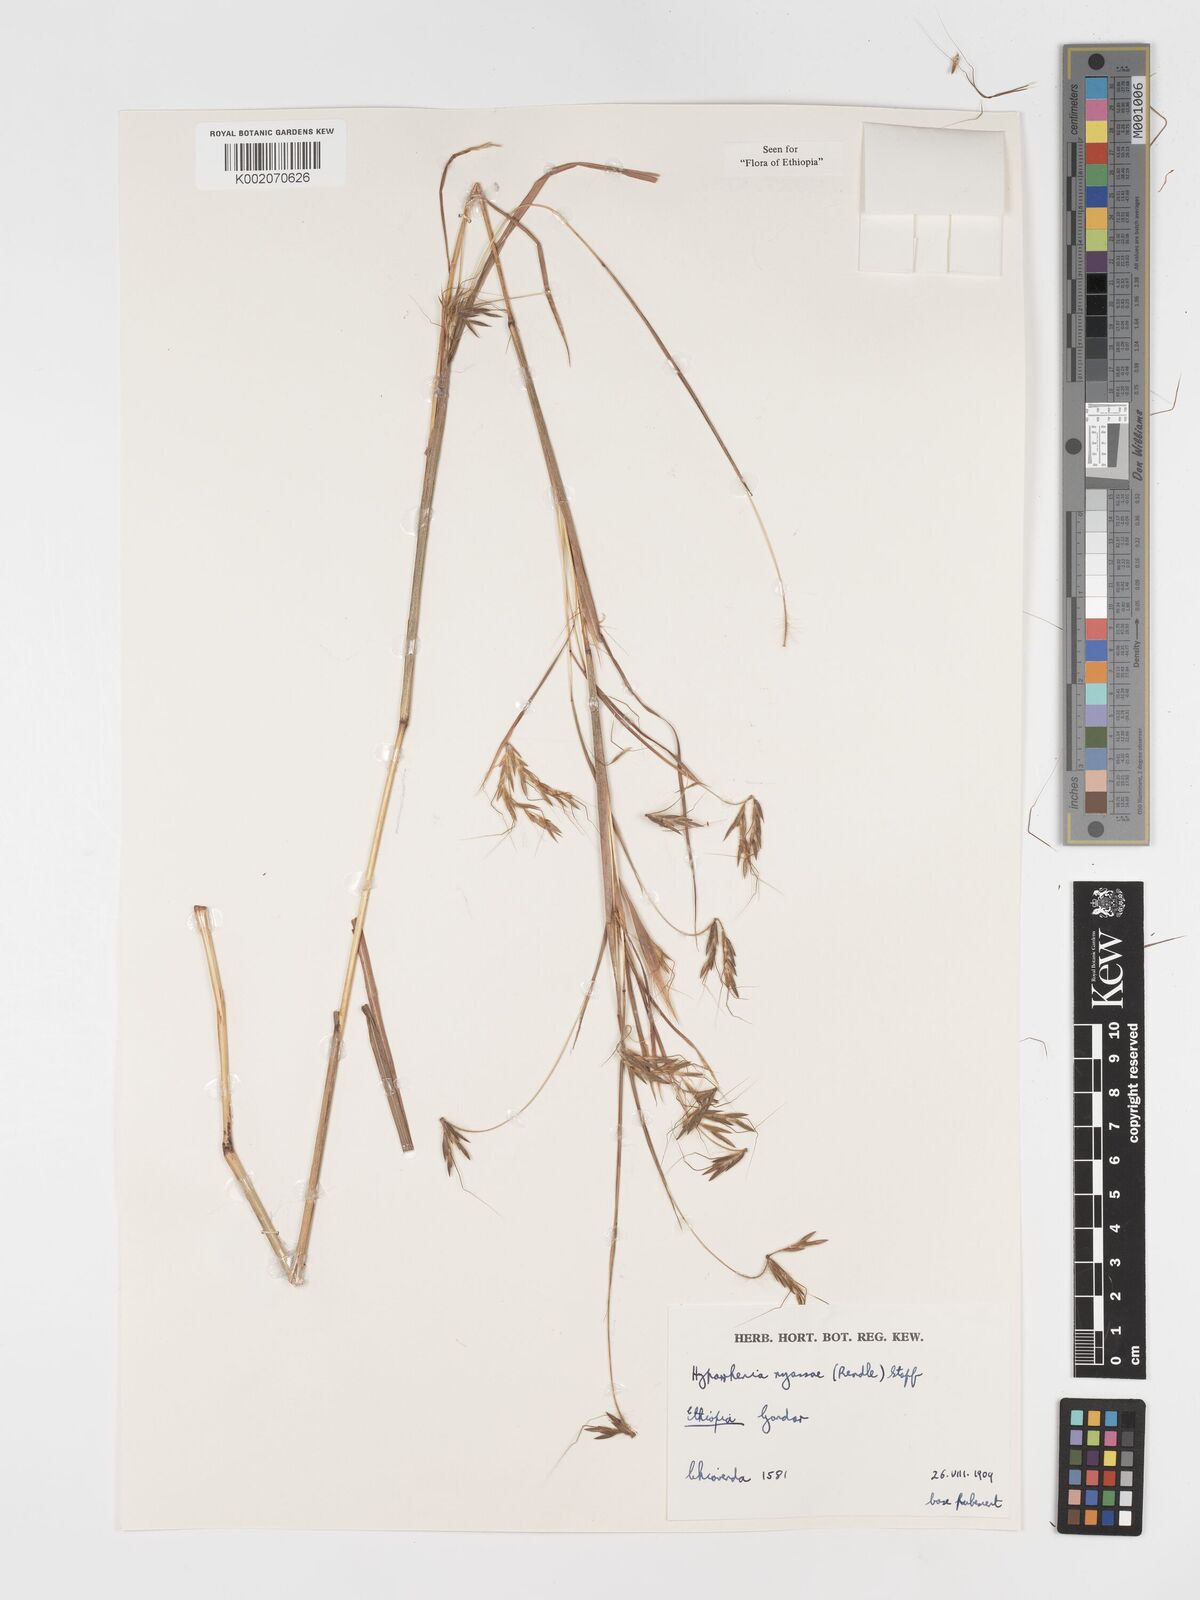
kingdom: Plantae
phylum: Tracheophyta
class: Liliopsida
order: Poales
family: Poaceae
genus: Hyparrhenia
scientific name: Hyparrhenia nyassae
